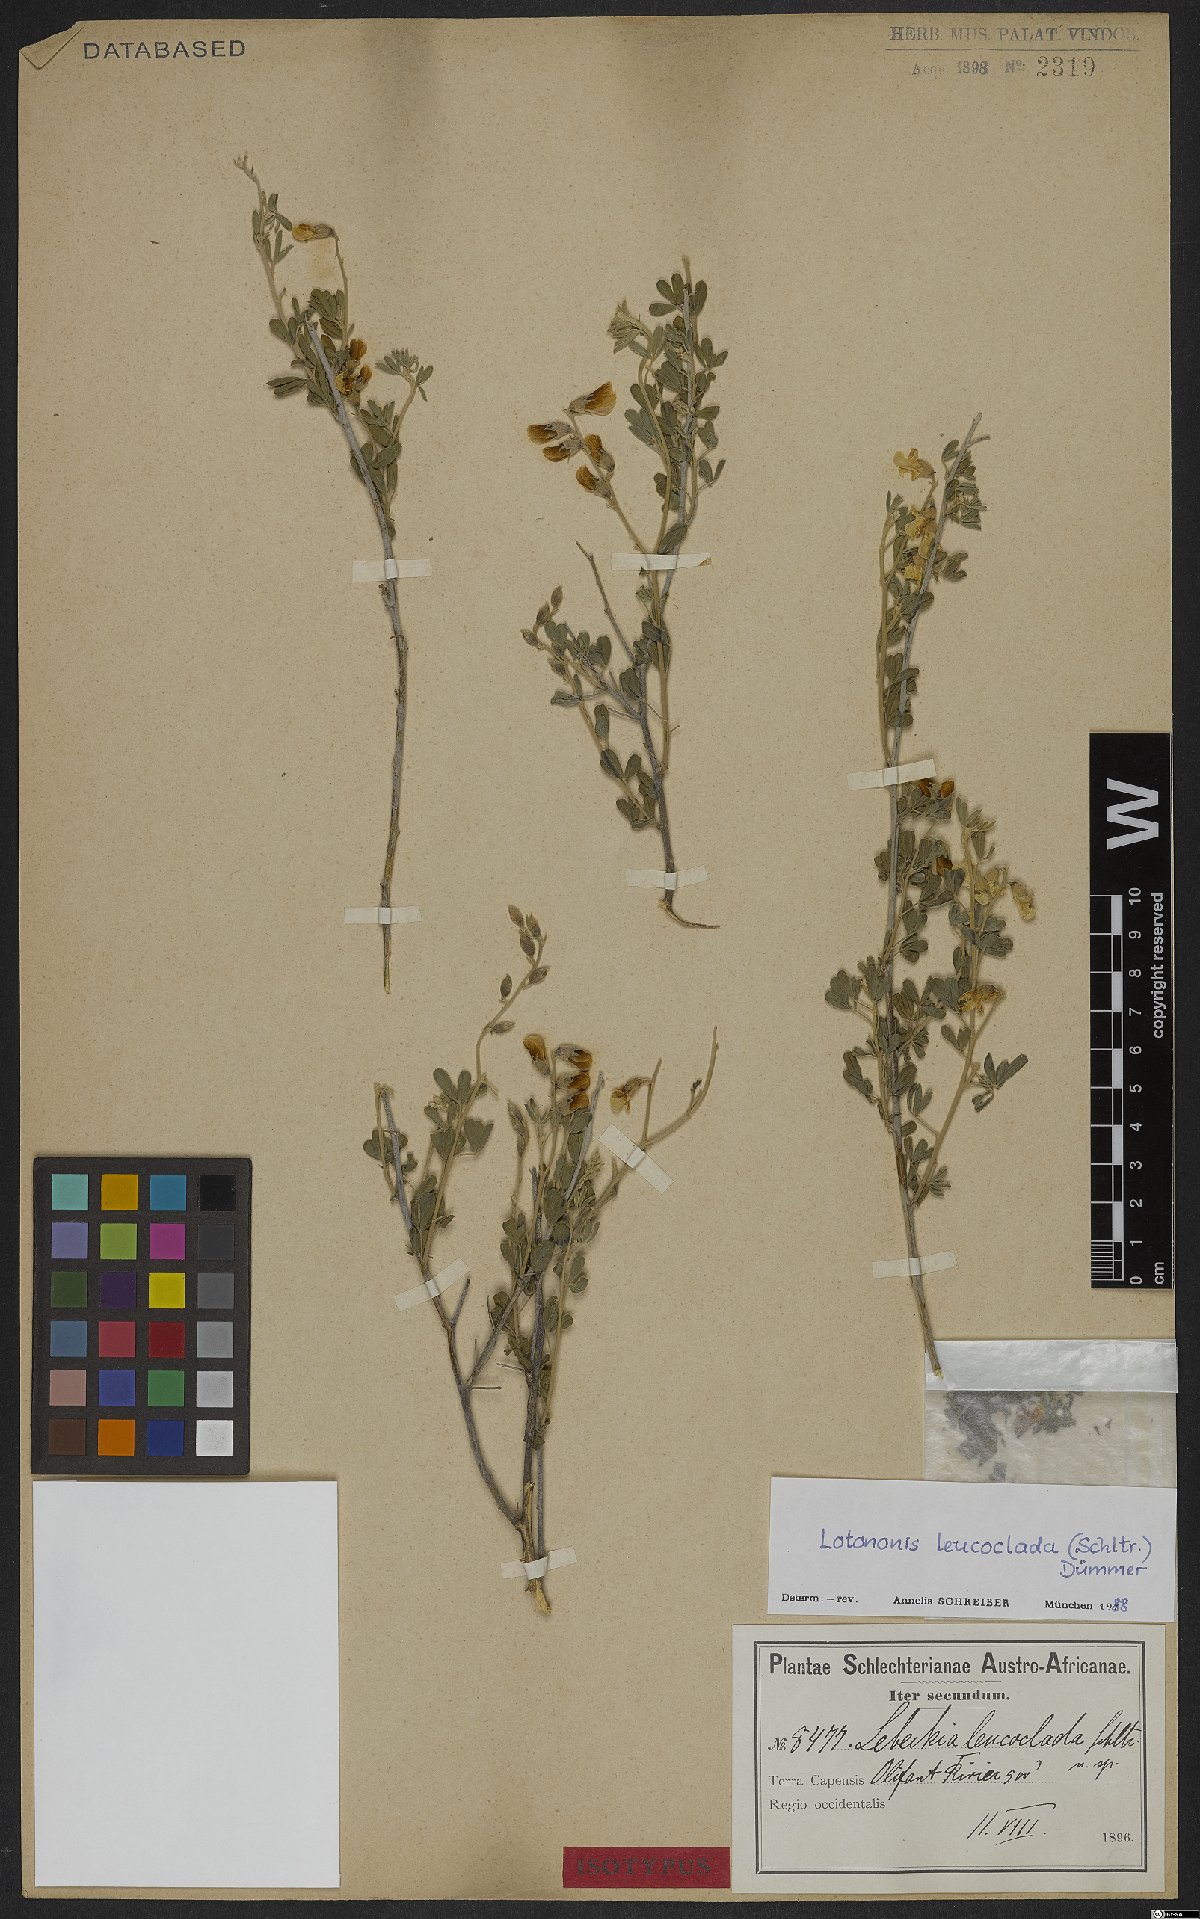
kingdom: Plantae
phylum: Tracheophyta
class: Magnoliopsida
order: Fabales
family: Fabaceae
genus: Lotononis
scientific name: Lotononis densa
